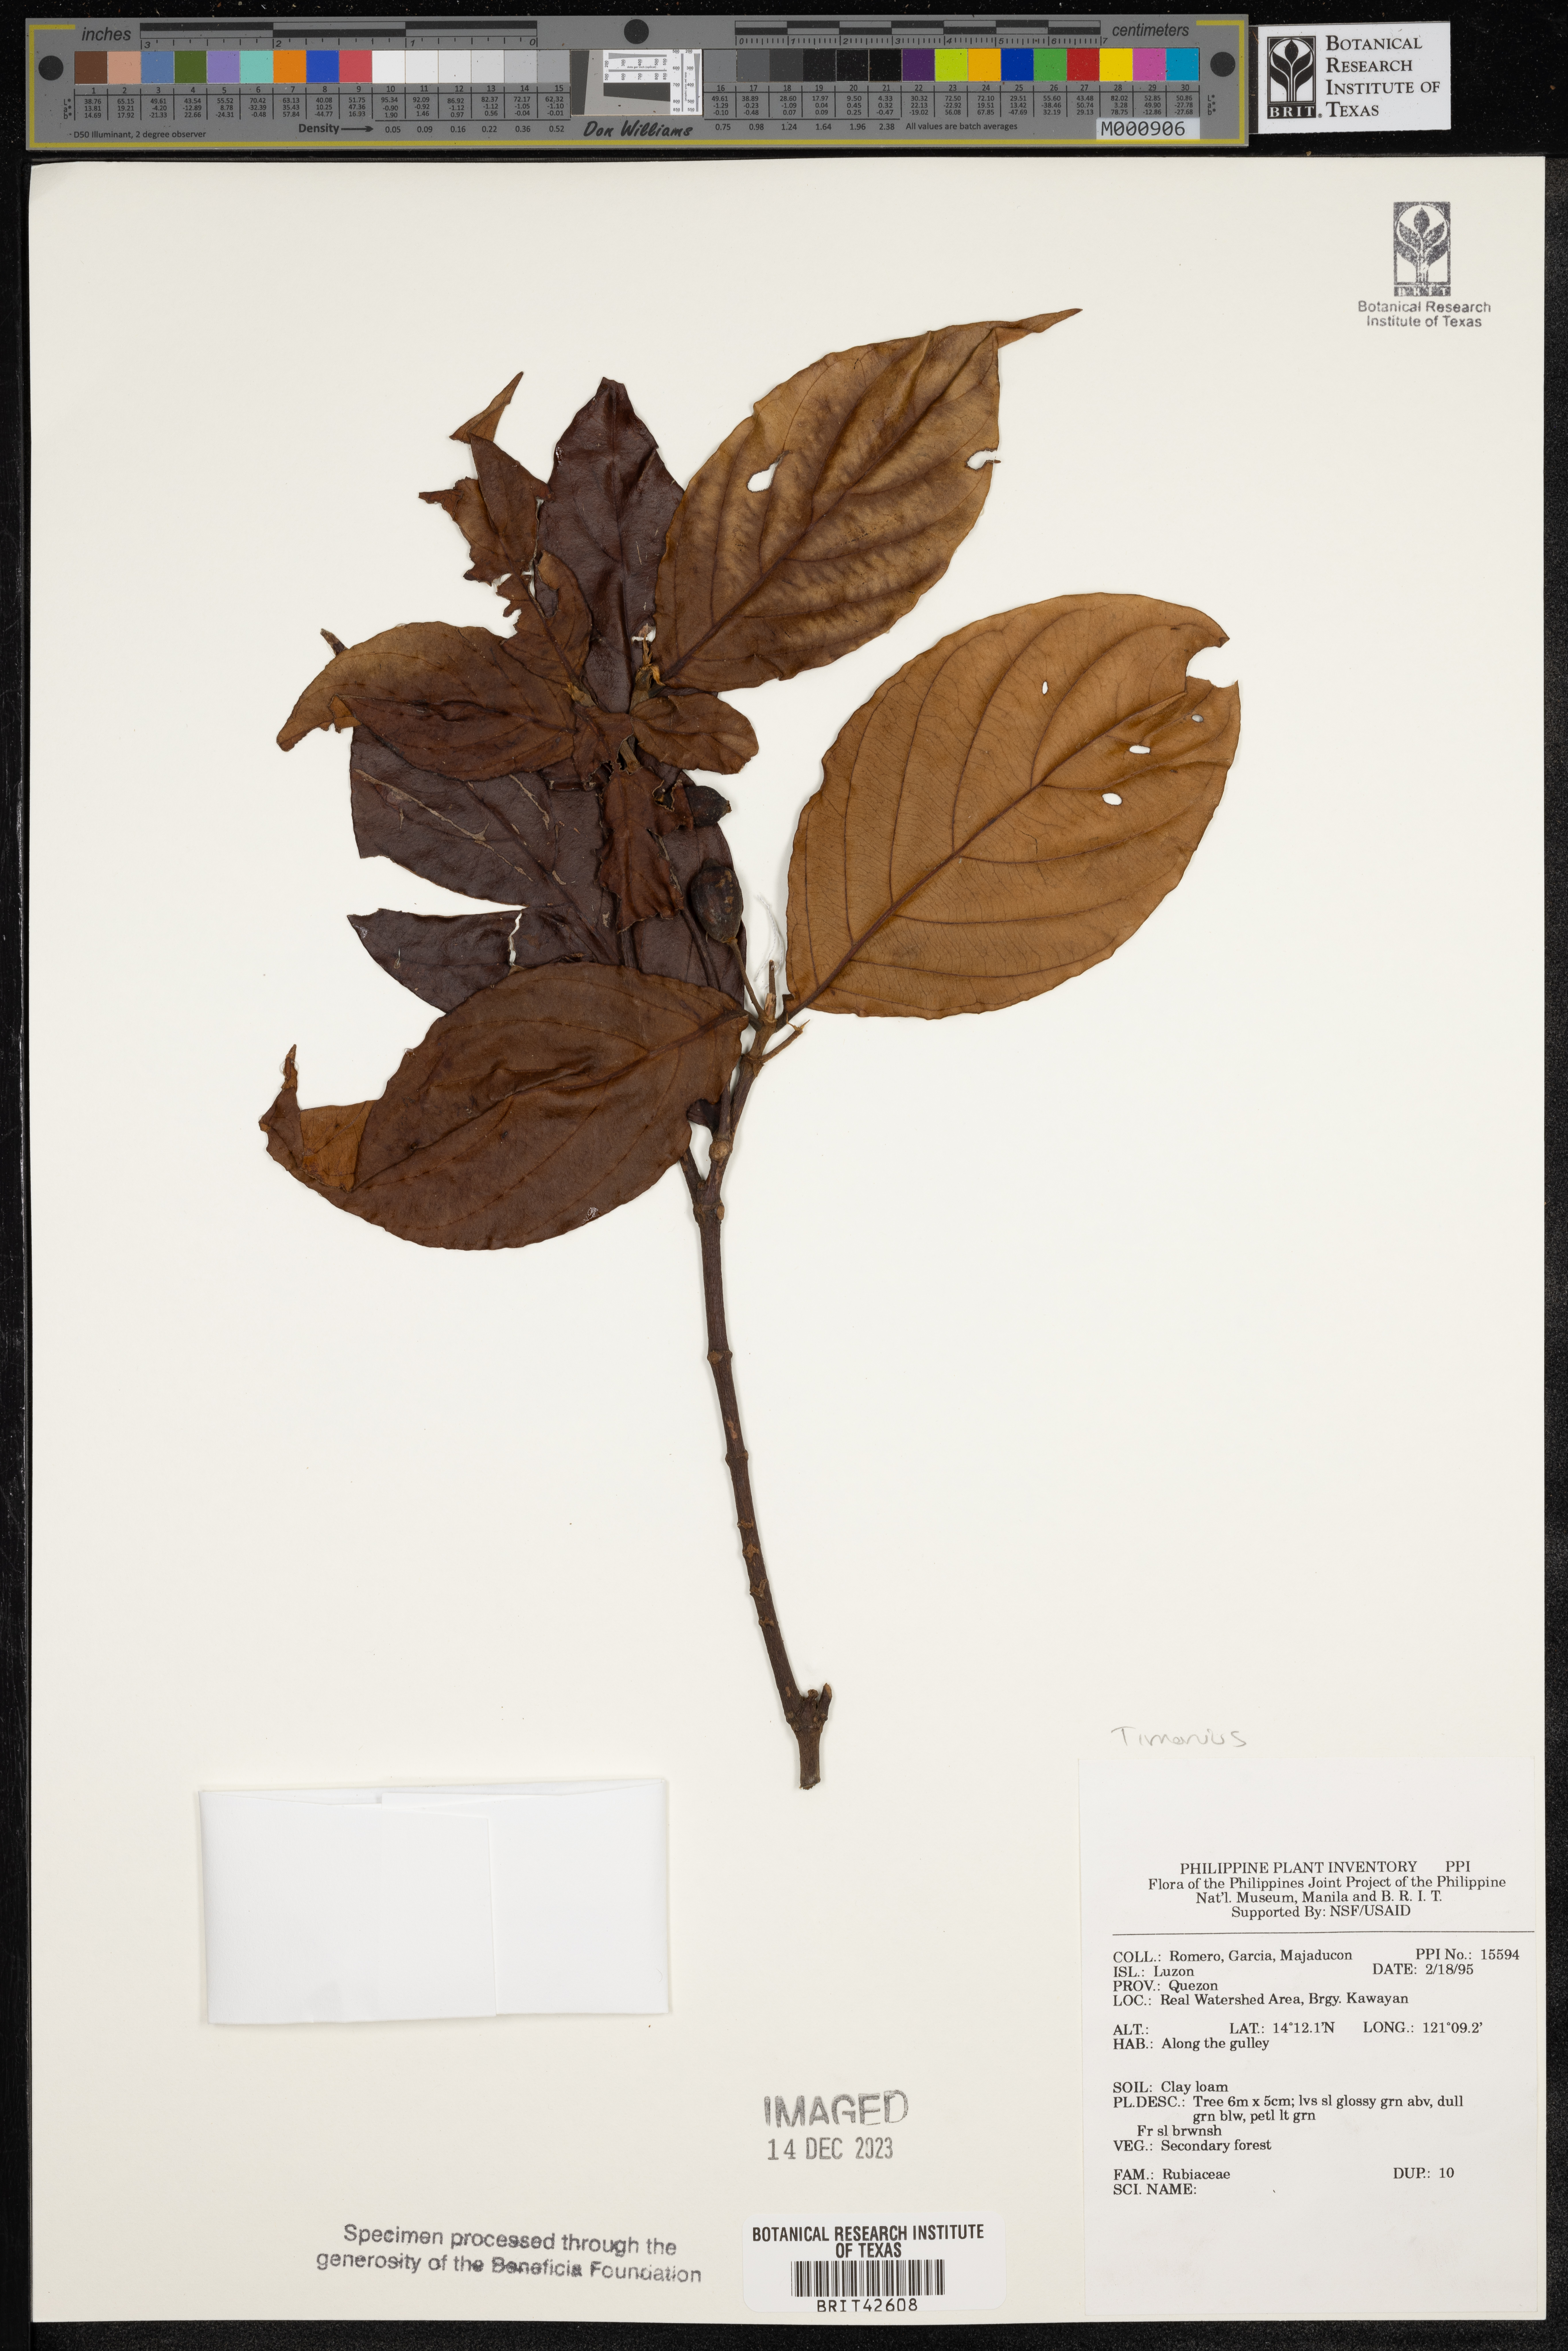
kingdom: Plantae
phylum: Tracheophyta
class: Magnoliopsida
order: Gentianales
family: Rubiaceae
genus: Timonius
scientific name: Timonius
